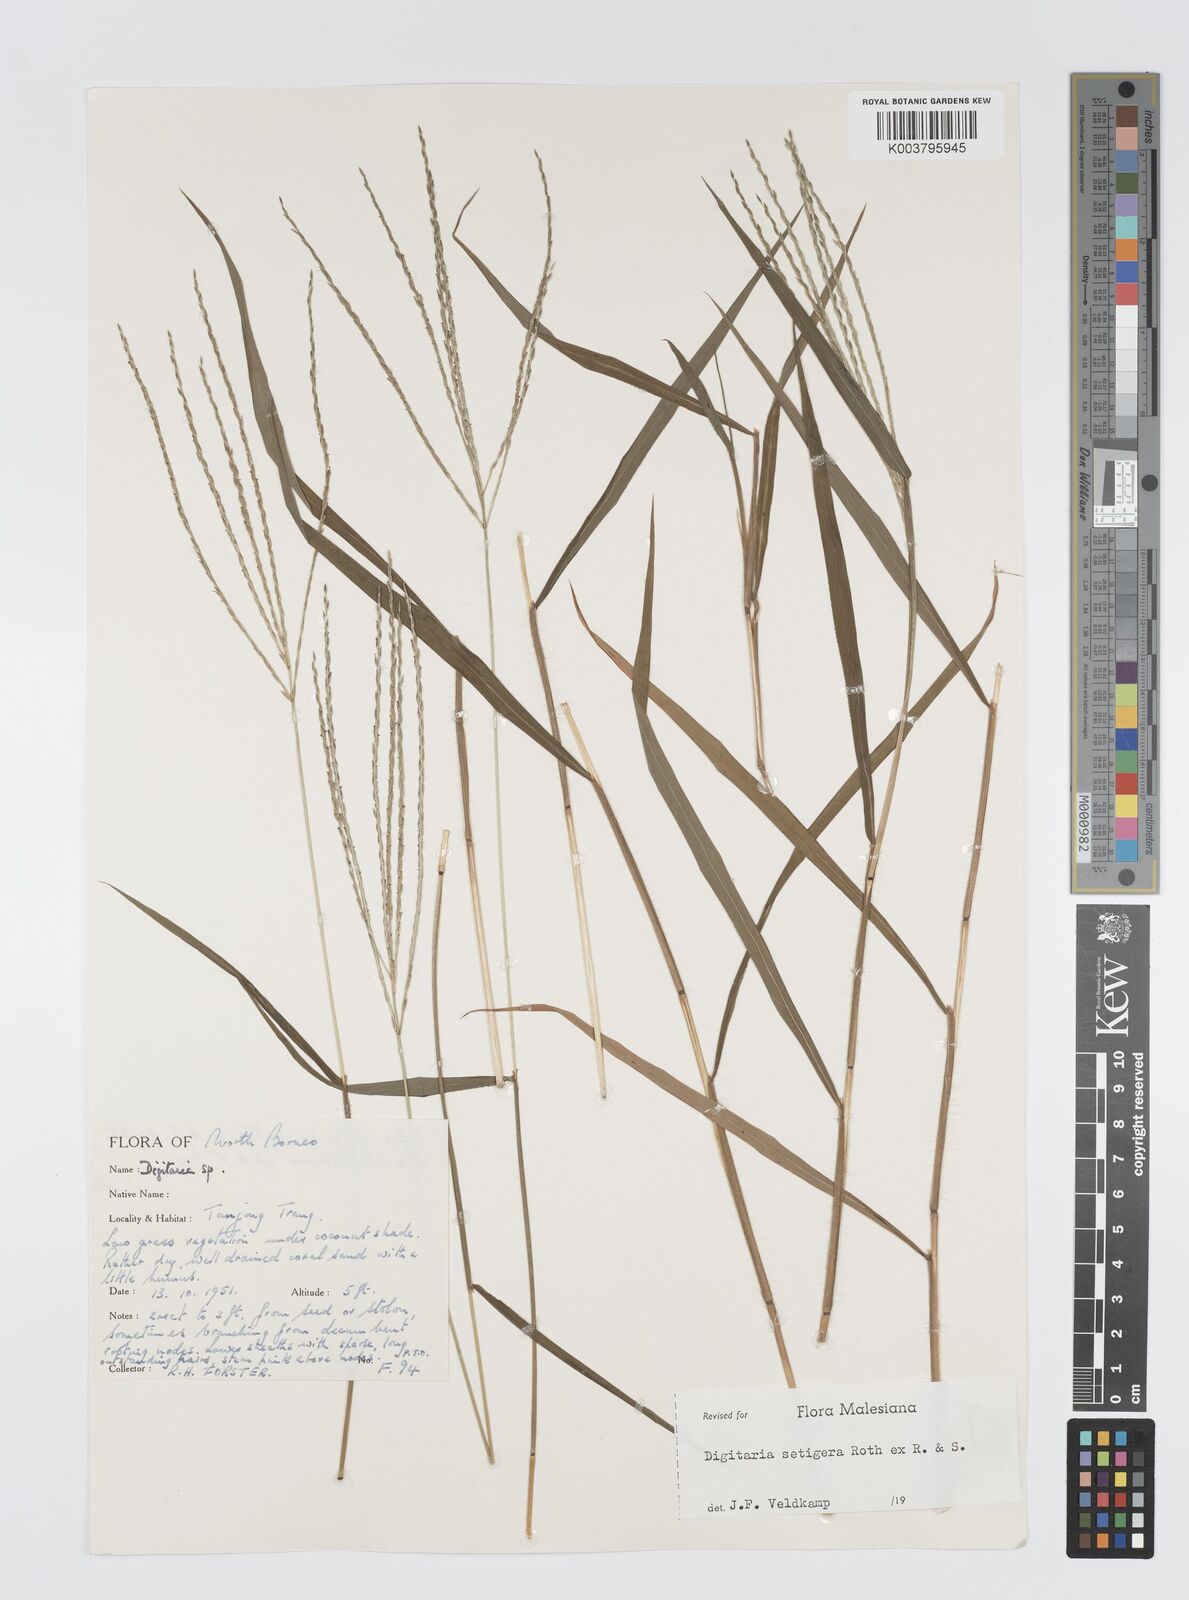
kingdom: Plantae
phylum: Tracheophyta
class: Liliopsida
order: Poales
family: Poaceae
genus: Digitaria
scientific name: Digitaria setigera
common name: East indian crabgrass
